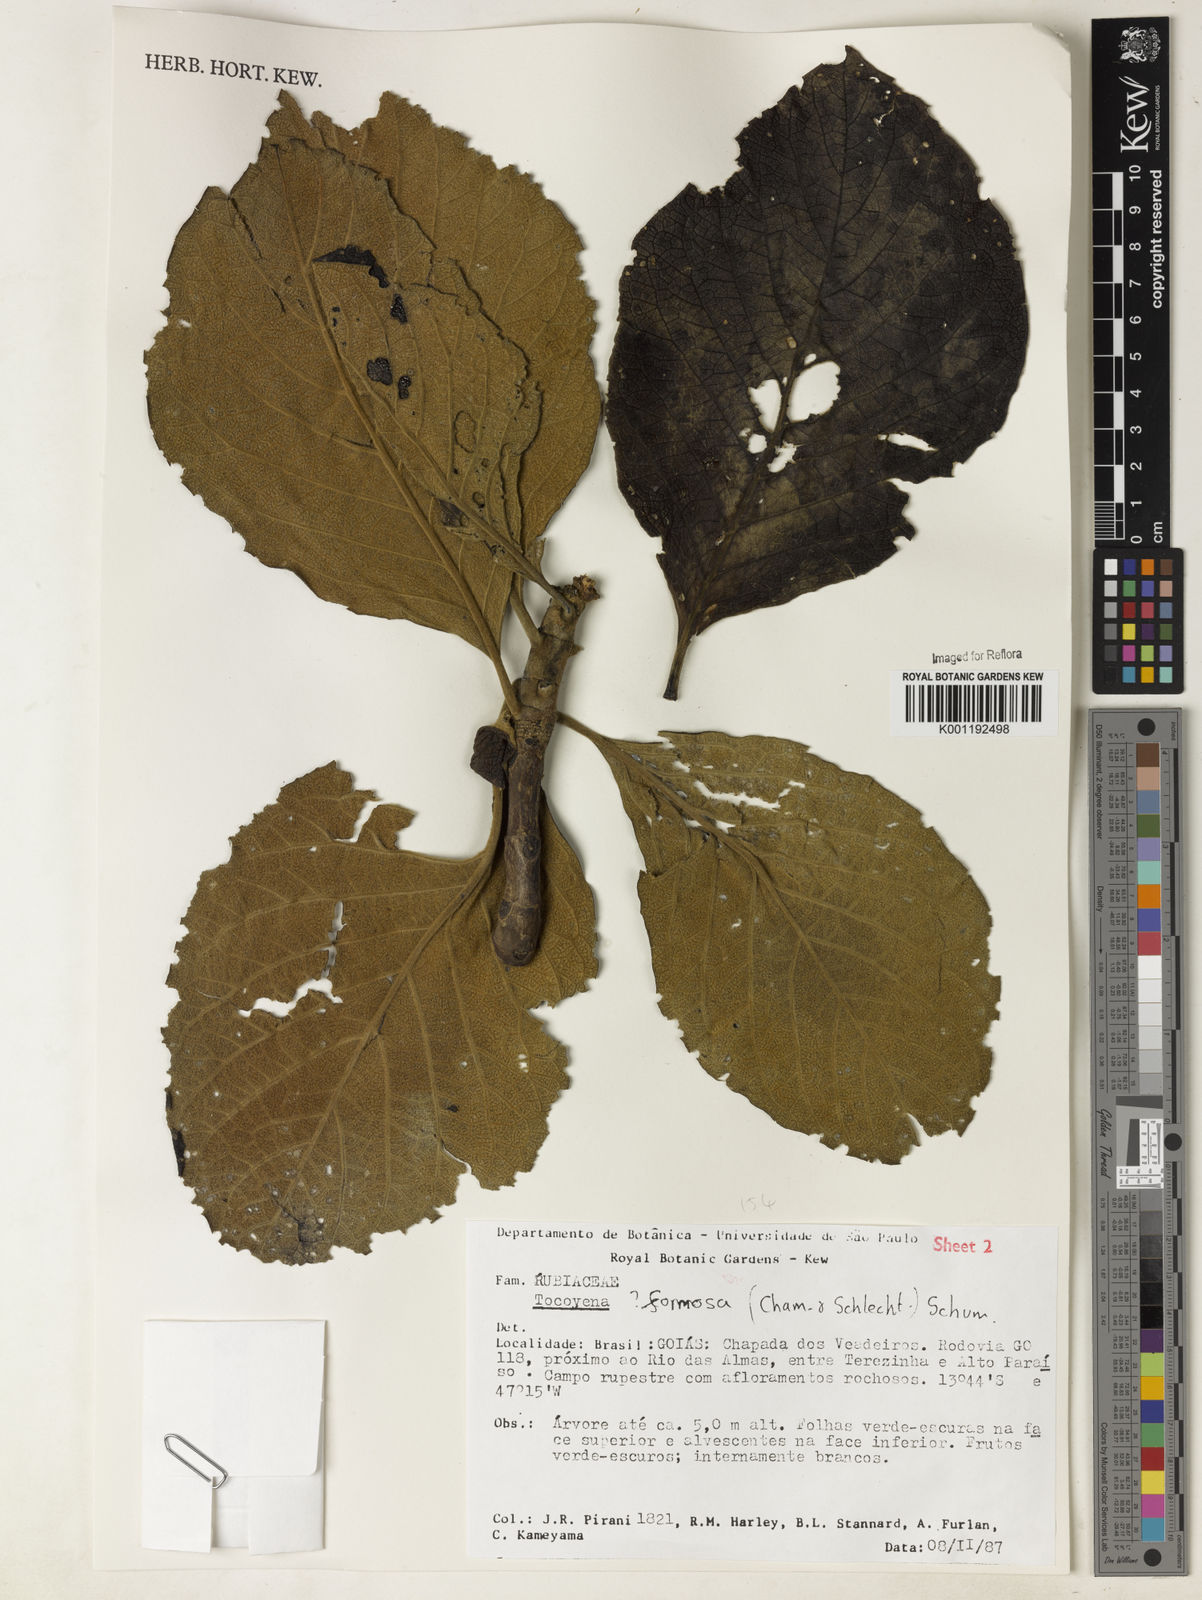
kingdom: Plantae
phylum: Tracheophyta
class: Magnoliopsida
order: Gentianales
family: Rubiaceae
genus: Tocoyena
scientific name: Tocoyena formosa
